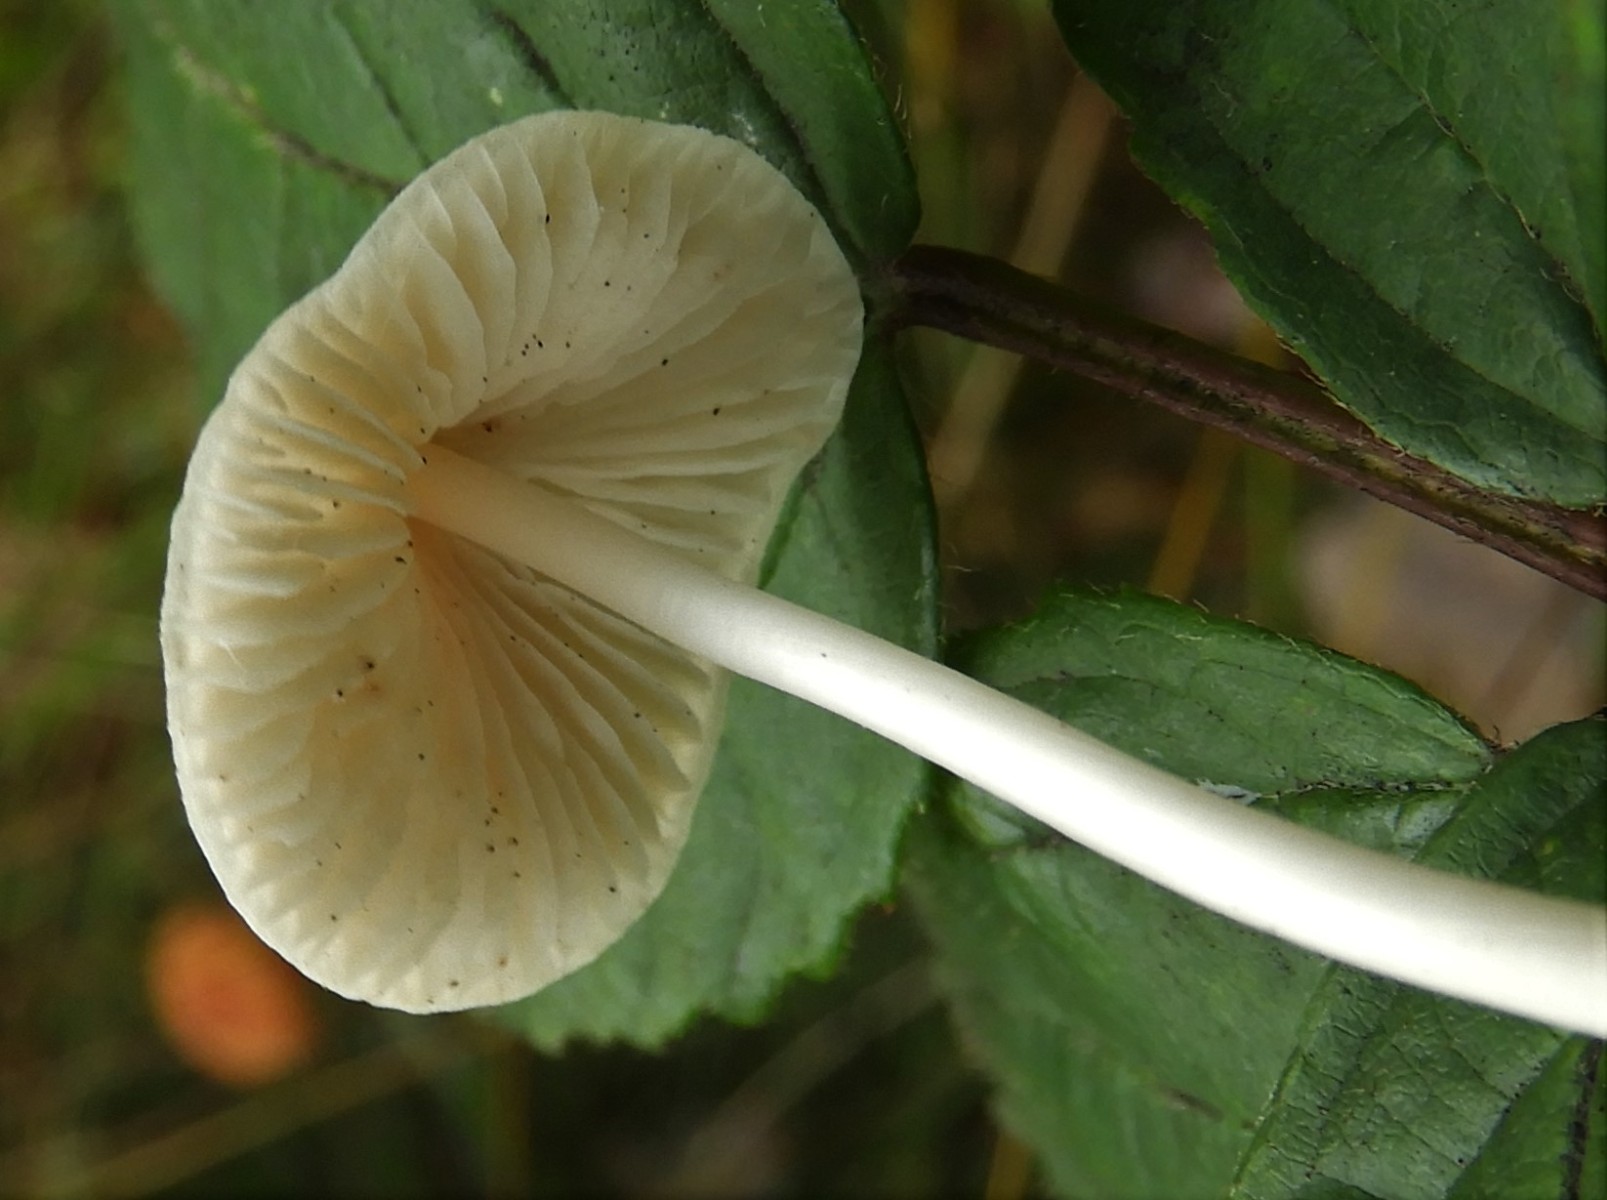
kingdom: Fungi
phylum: Basidiomycota
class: Agaricomycetes
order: Agaricales
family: Mycenaceae
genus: Mycena
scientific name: Mycena
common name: huesvamp
